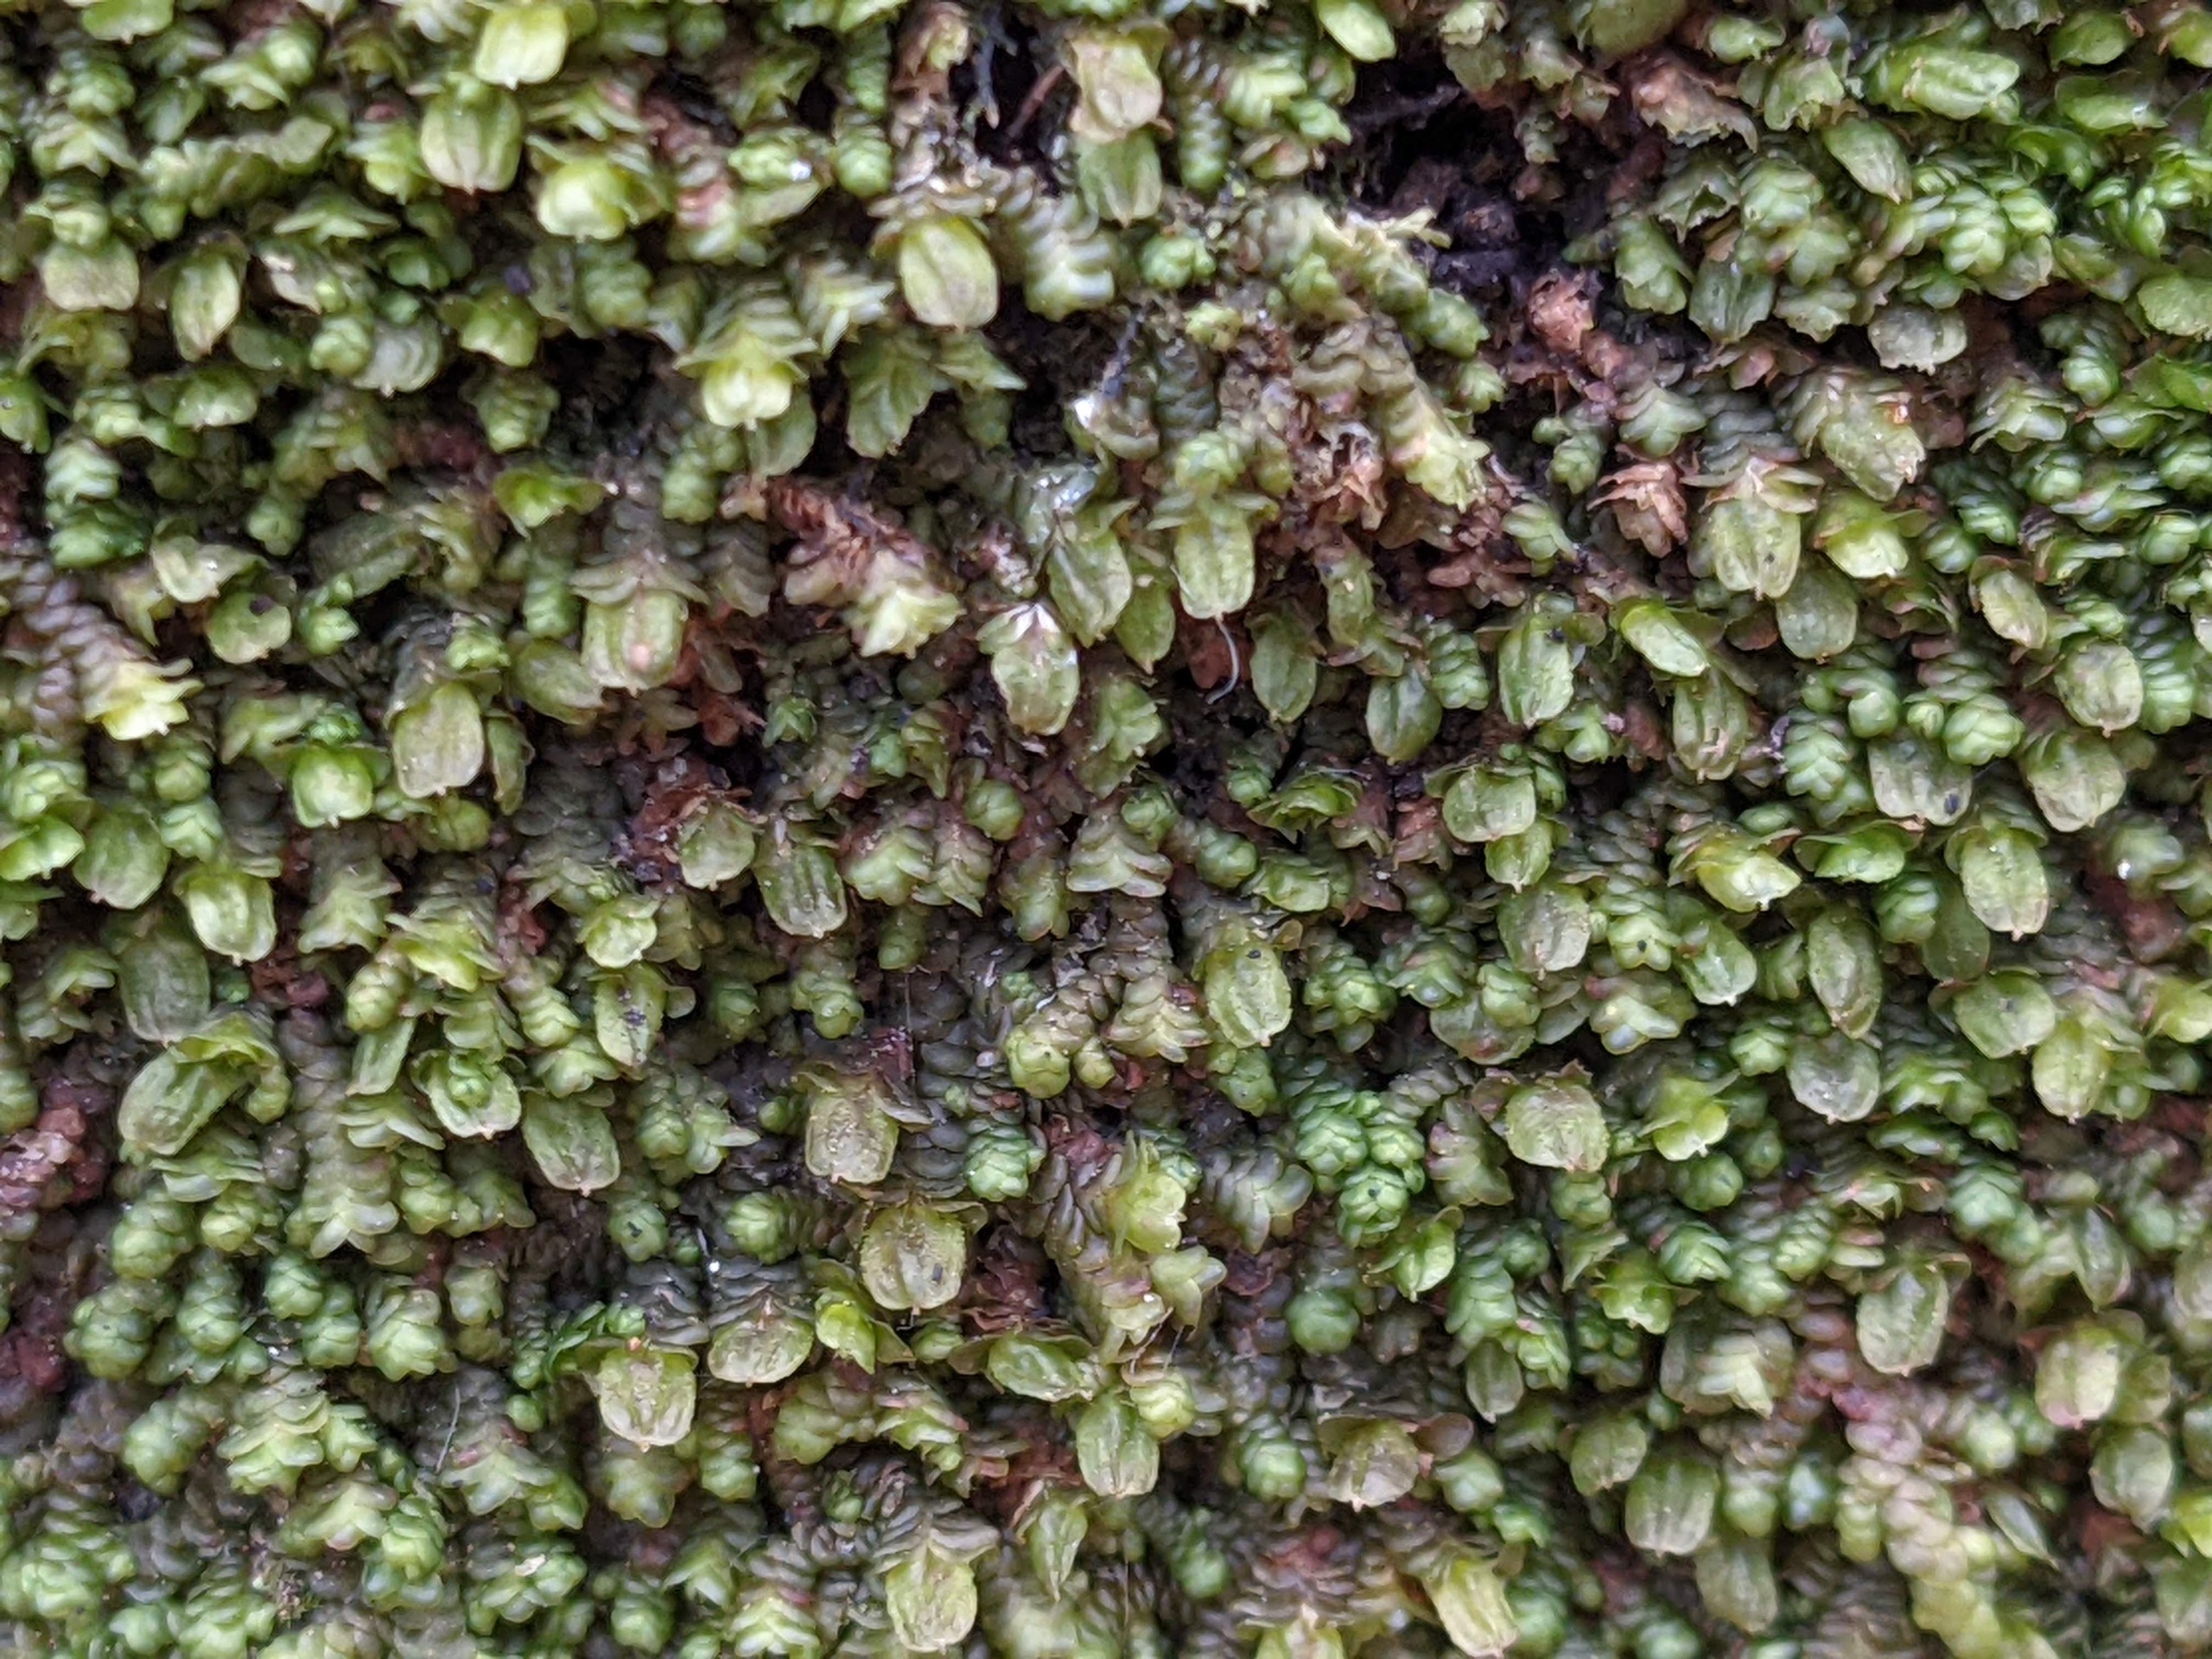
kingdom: Plantae
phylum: Marchantiophyta
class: Jungermanniopsida
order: Porellales
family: Frullaniaceae
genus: Frullania
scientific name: Frullania dilatata
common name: Mat bronzemos
